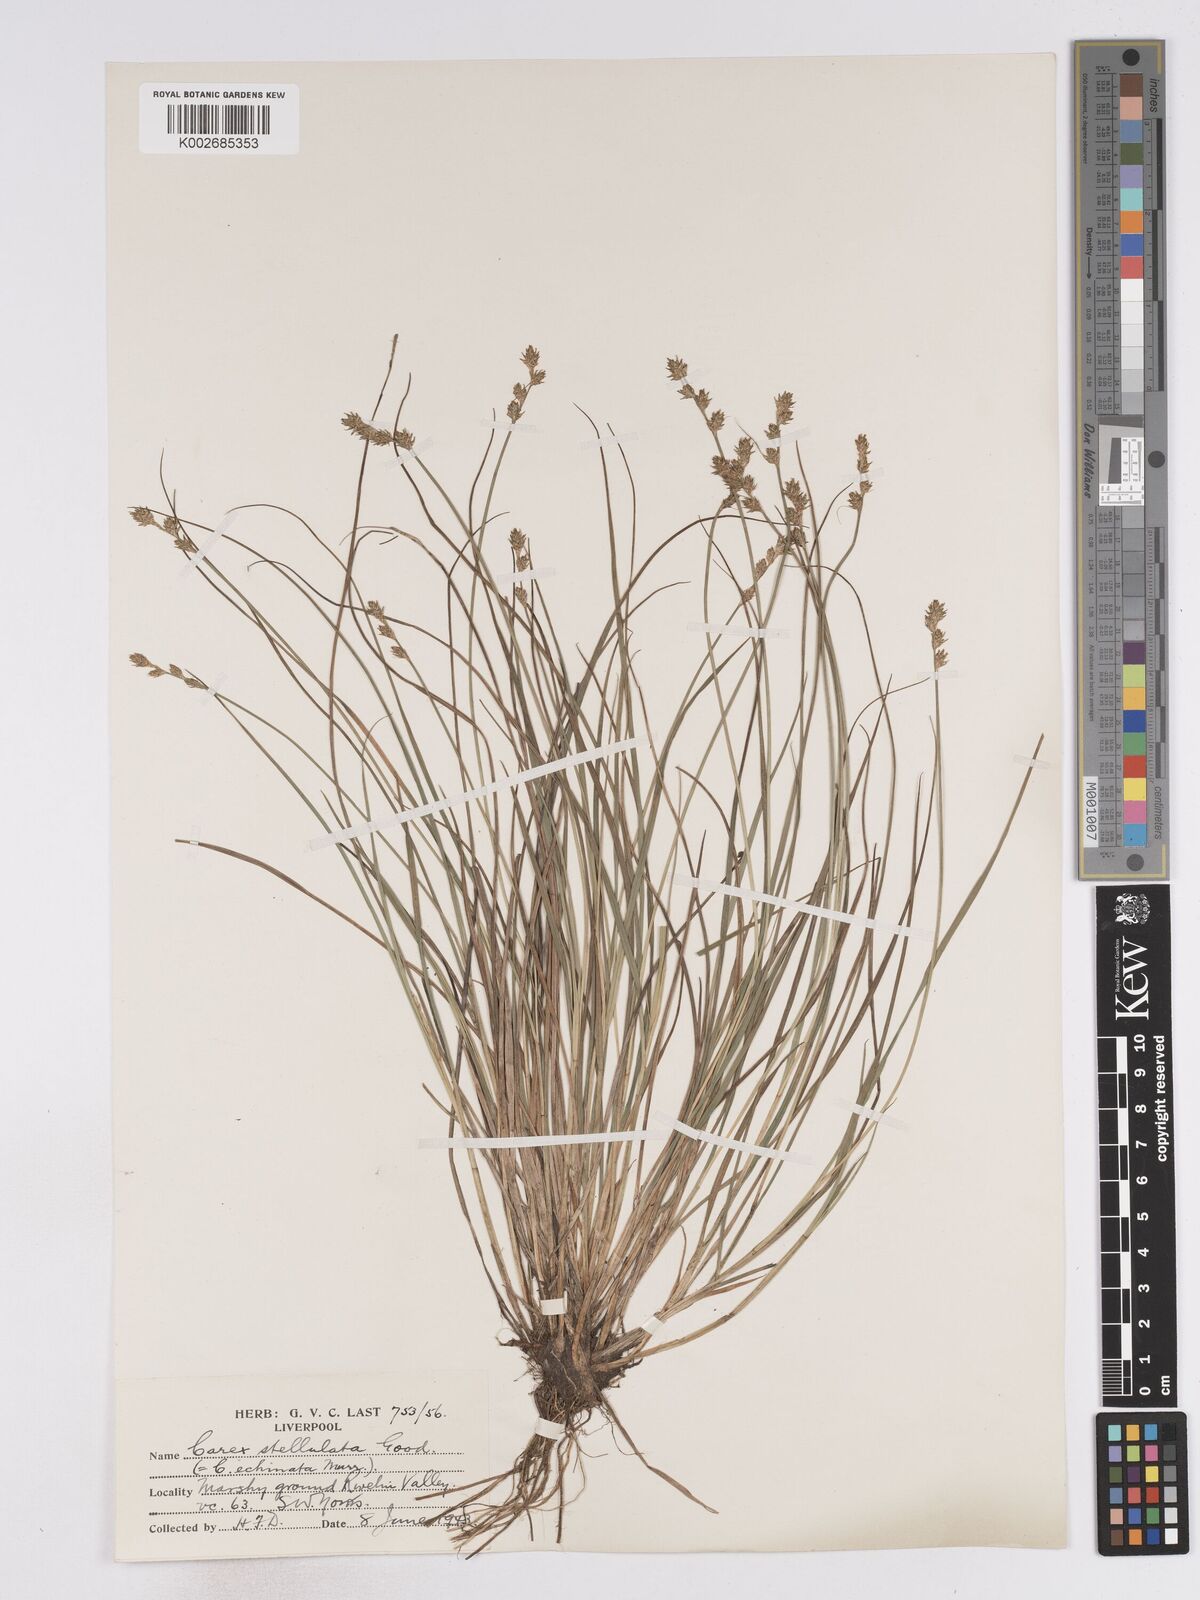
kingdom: Plantae
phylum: Tracheophyta
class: Liliopsida
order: Poales
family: Cyperaceae
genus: Carex
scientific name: Carex echinata
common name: Star sedge
